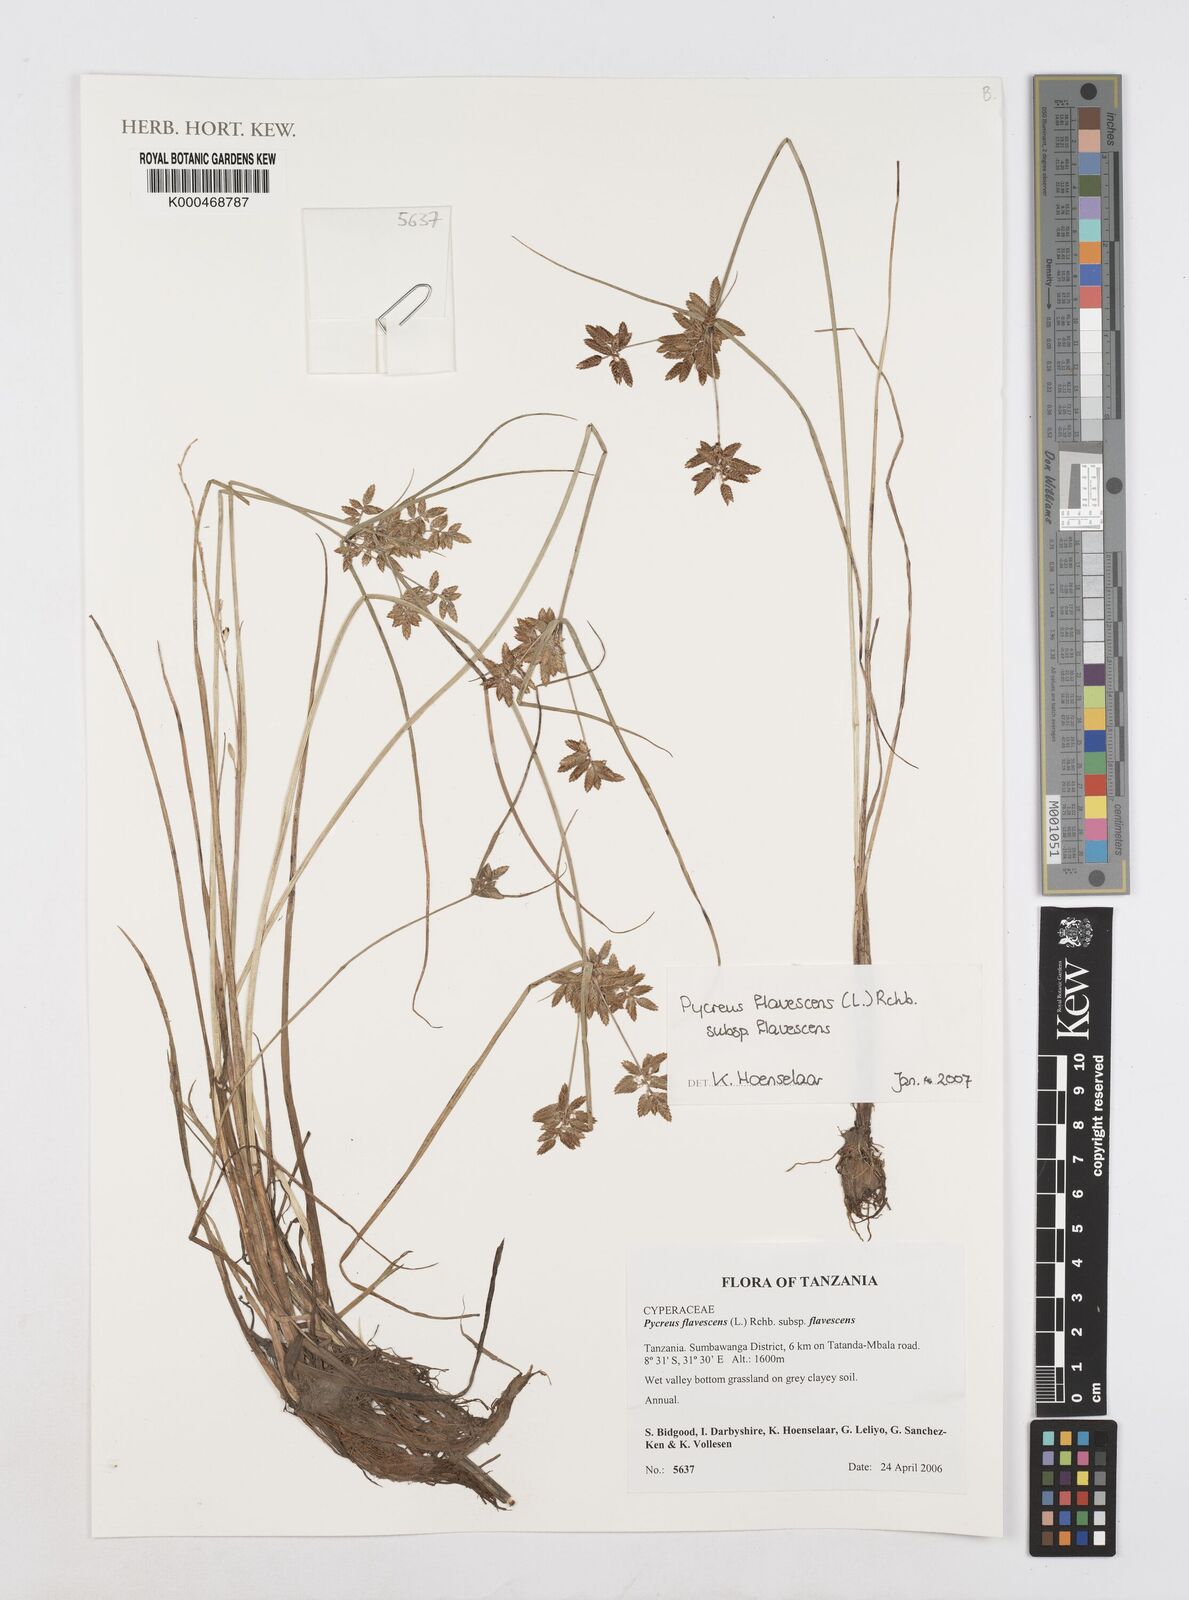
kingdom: Plantae
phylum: Tracheophyta
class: Liliopsida
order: Poales
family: Cyperaceae
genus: Cyperus
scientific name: Cyperus flavescens
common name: Yellow galingale
